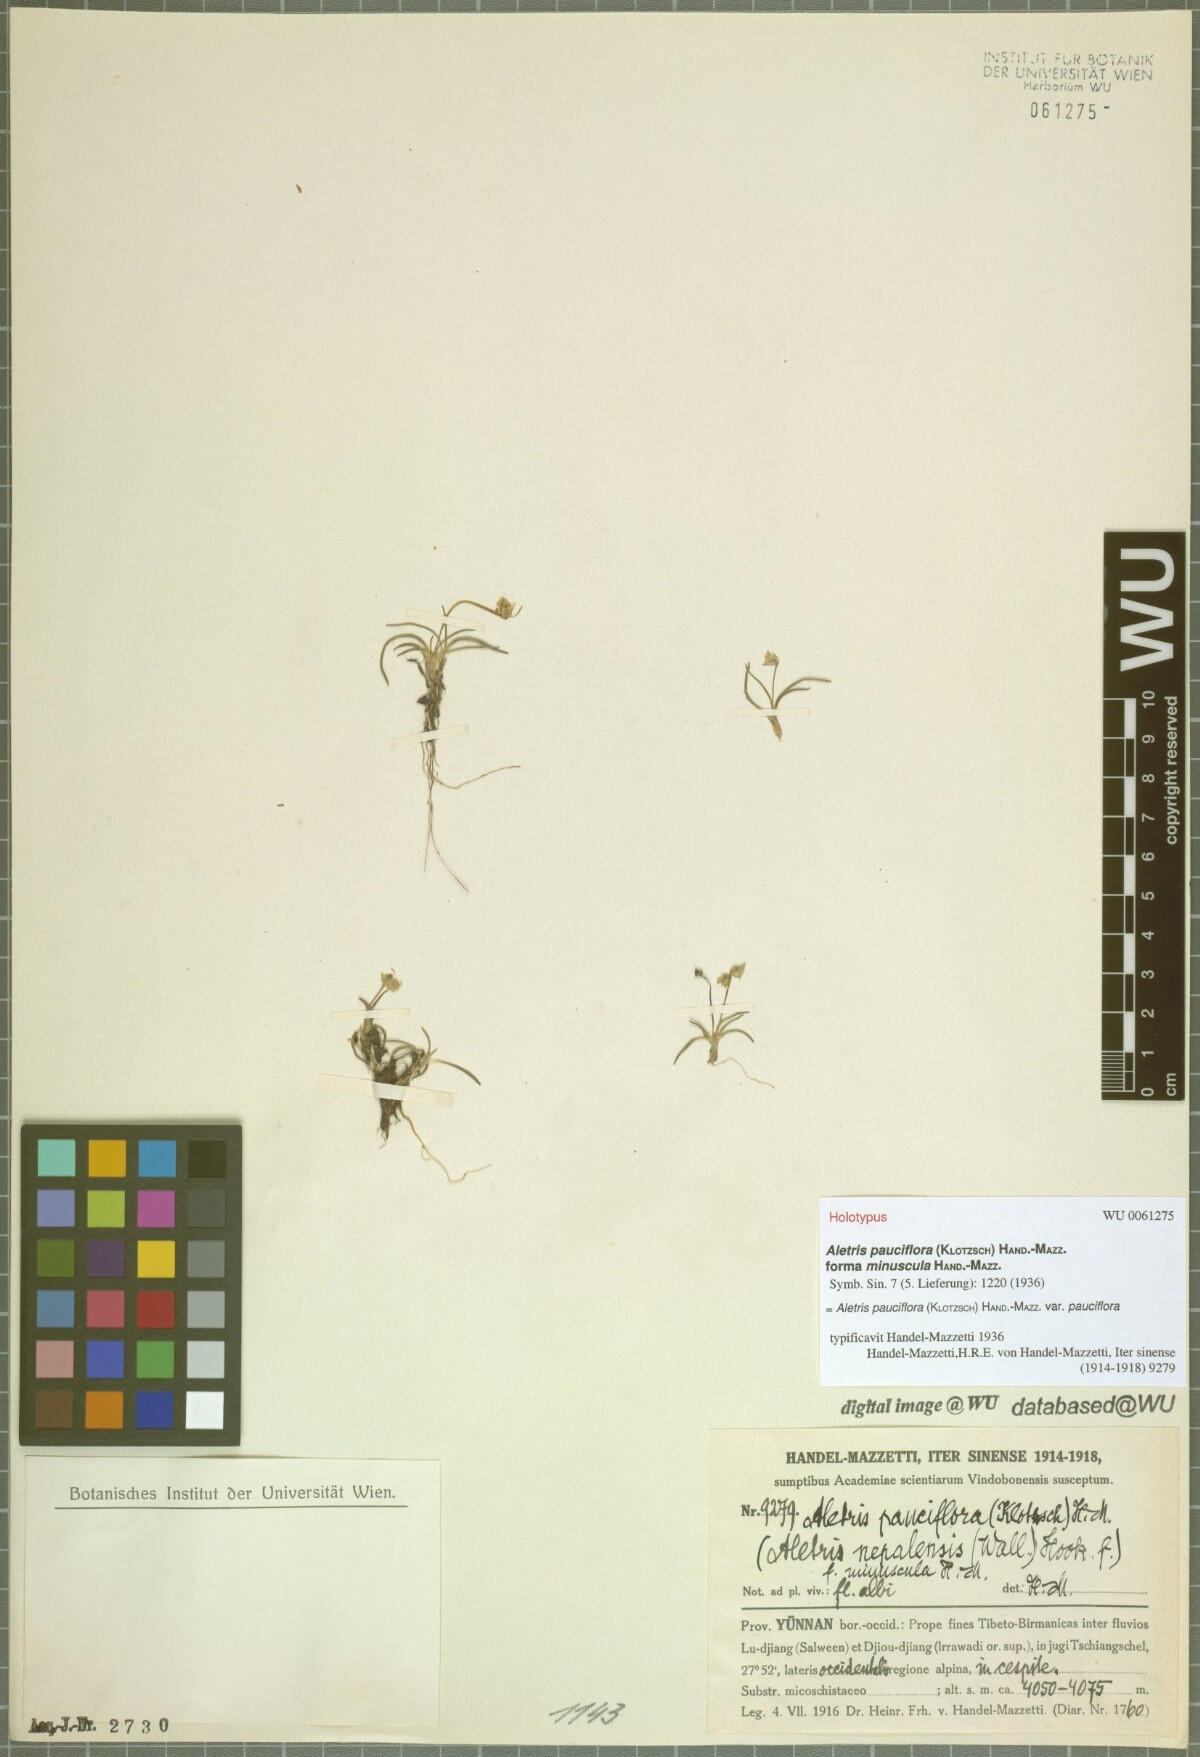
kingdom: Plantae
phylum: Tracheophyta
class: Liliopsida
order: Dioscoreales
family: Nartheciaceae
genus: Aletris
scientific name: Aletris pauciflora
